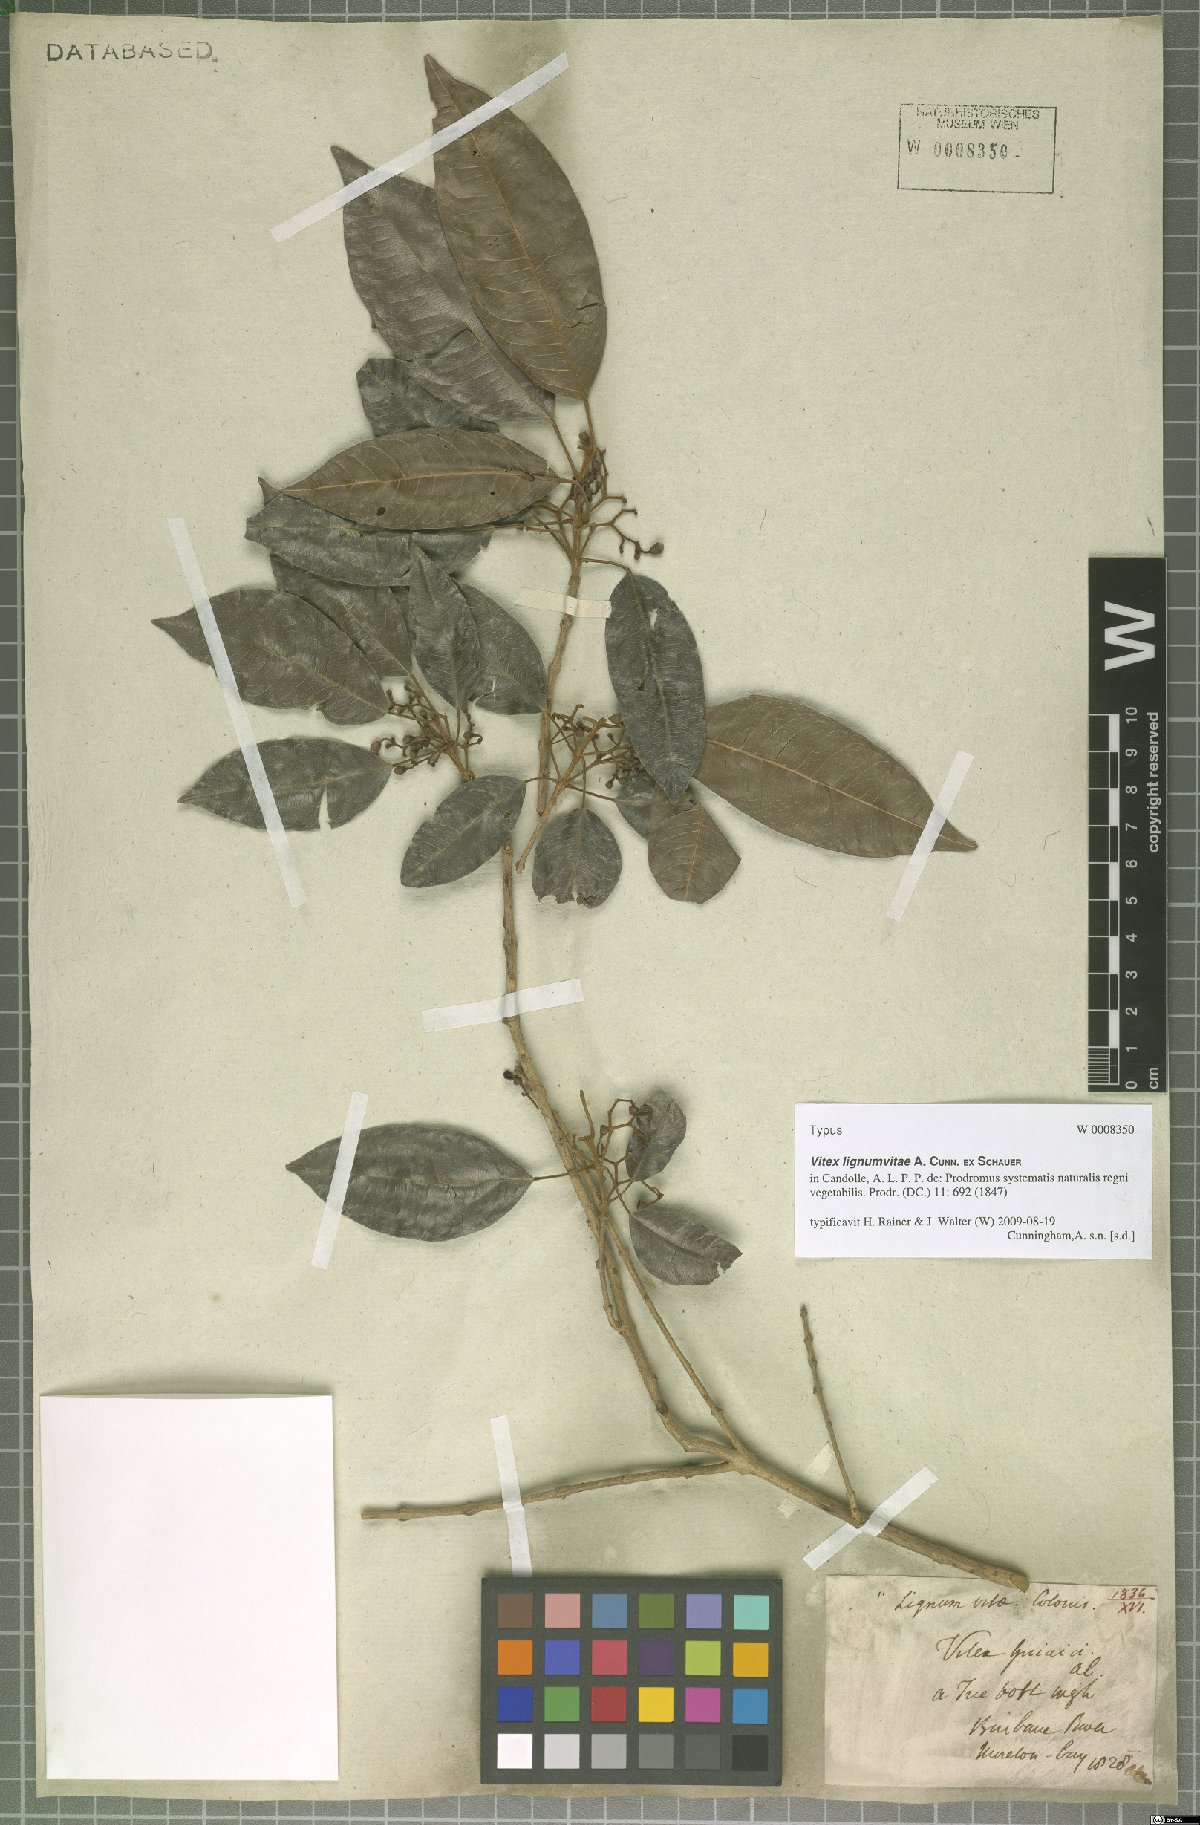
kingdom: Plantae
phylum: Tracheophyta
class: Magnoliopsida
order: Lamiales
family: Lamiaceae
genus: Vitex
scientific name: Vitex lignum-vitae
